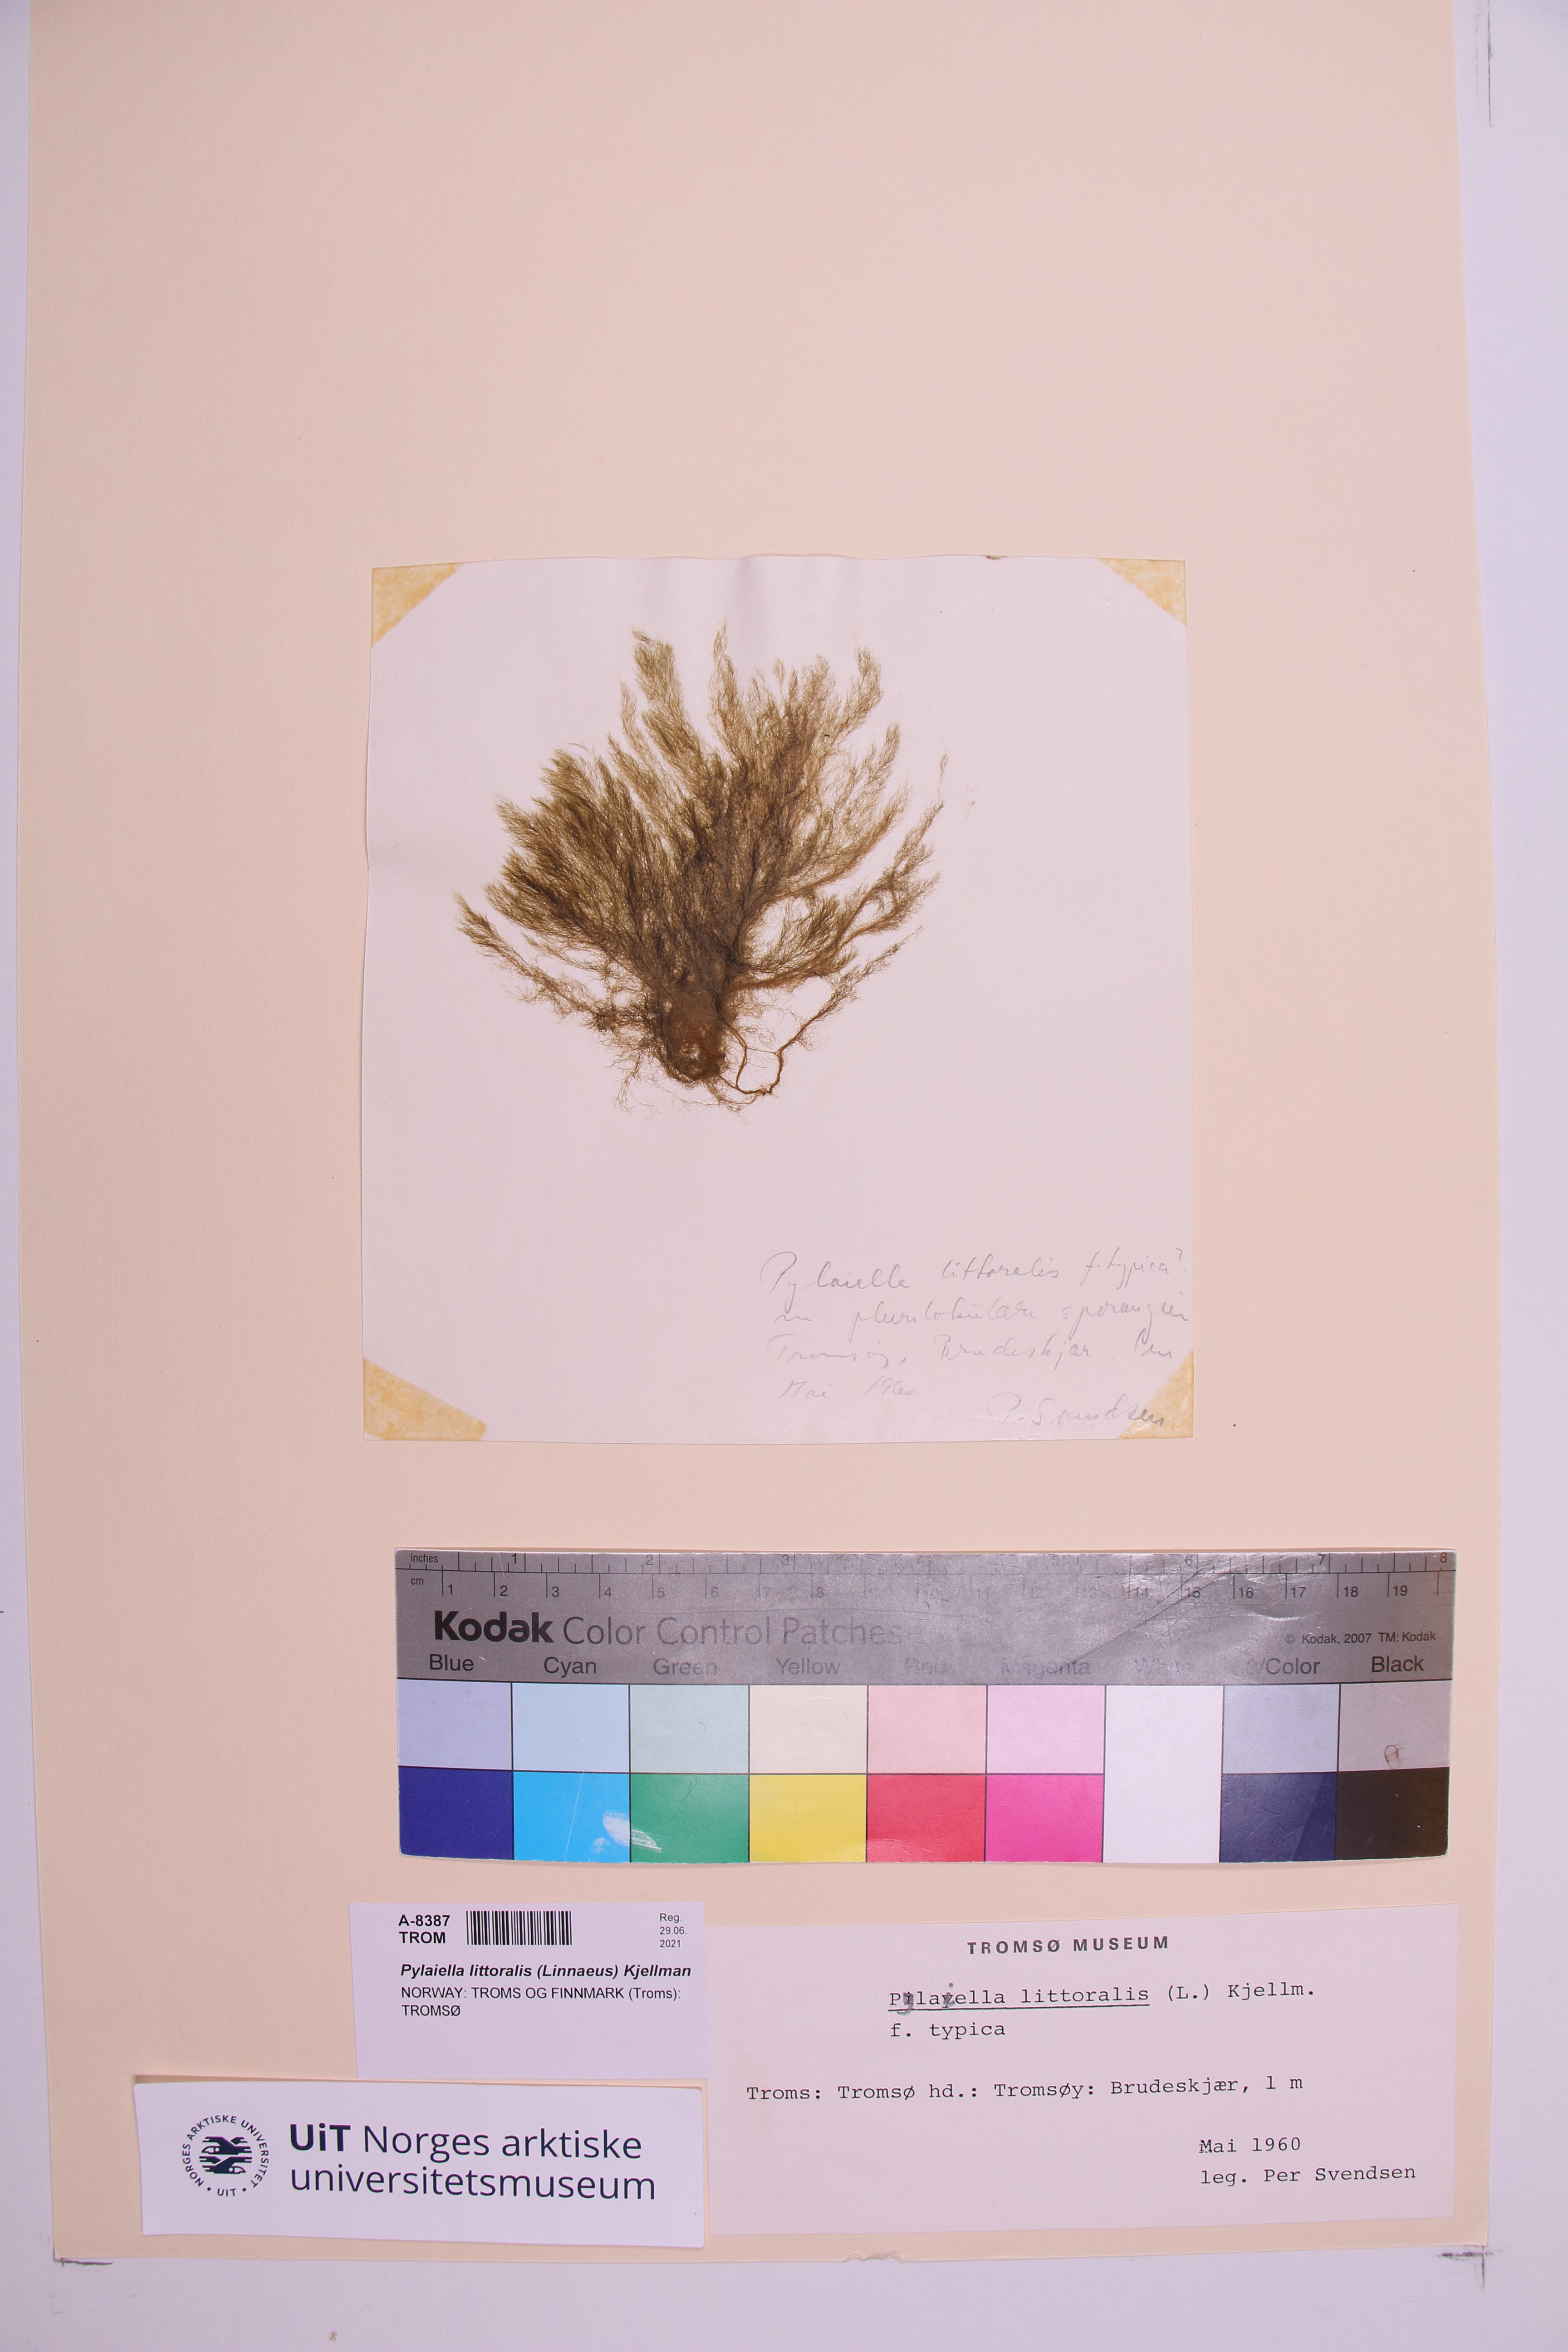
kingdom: Chromista
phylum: Ochrophyta
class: Phaeophyceae
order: Ectocarpales
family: Acinetosporaceae
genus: Pylaiella
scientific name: Pylaiella littoralis
